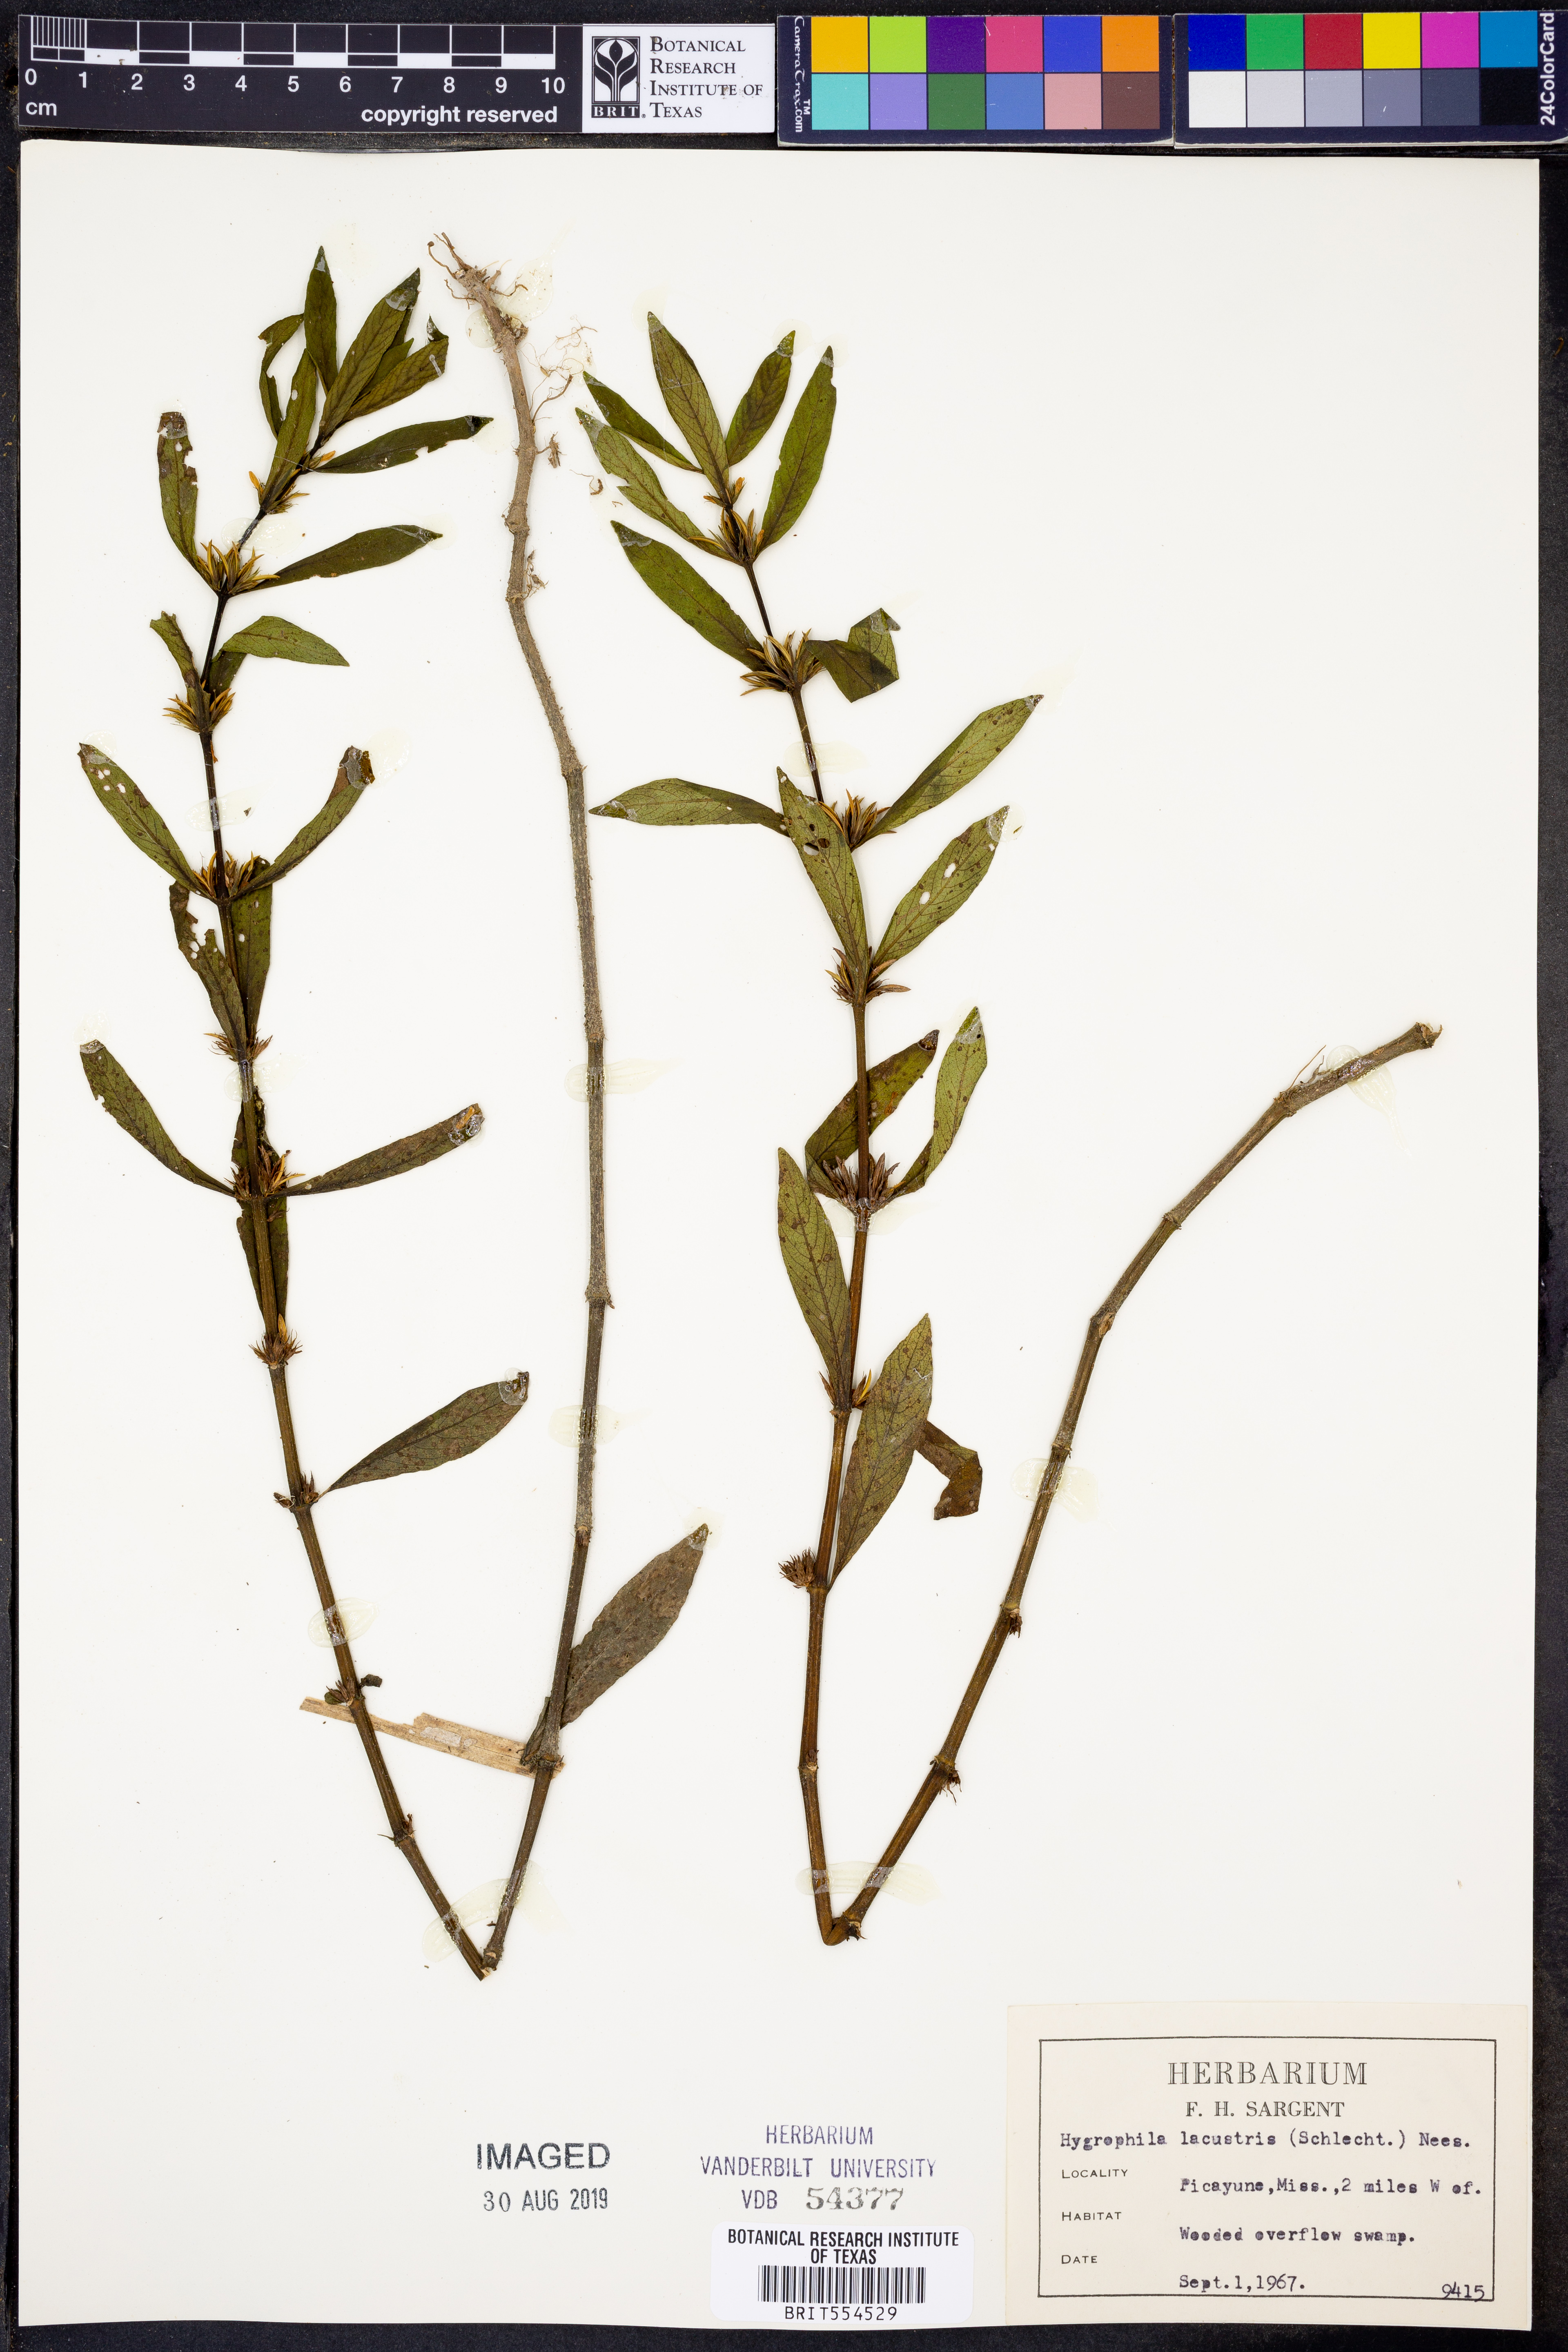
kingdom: Plantae
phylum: Tracheophyta
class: Magnoliopsida
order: Lamiales
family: Acanthaceae
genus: Hygrophila
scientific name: Hygrophila costata
